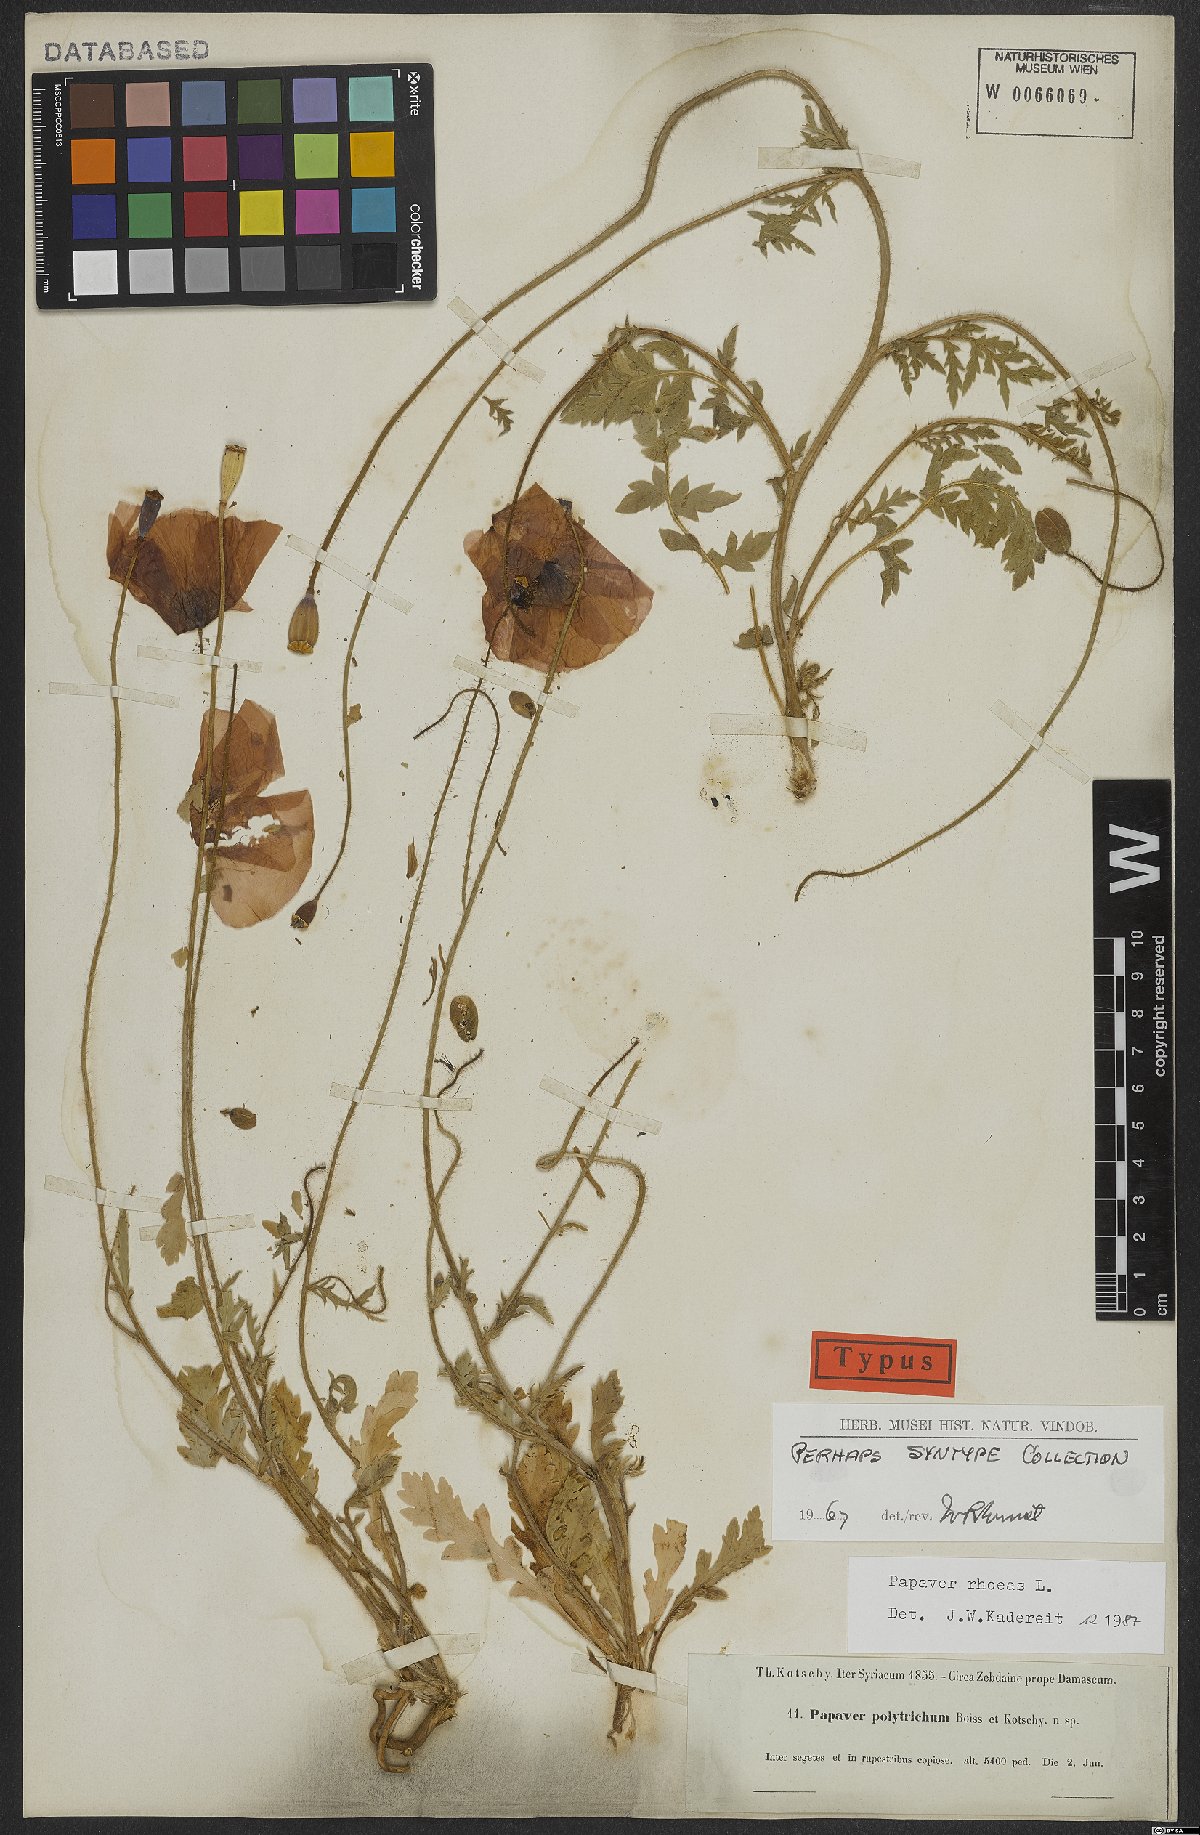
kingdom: Plantae
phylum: Tracheophyta
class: Magnoliopsida
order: Ranunculales
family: Papaveraceae
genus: Papaver
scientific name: Papaver rhoeas
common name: Corn poppy
